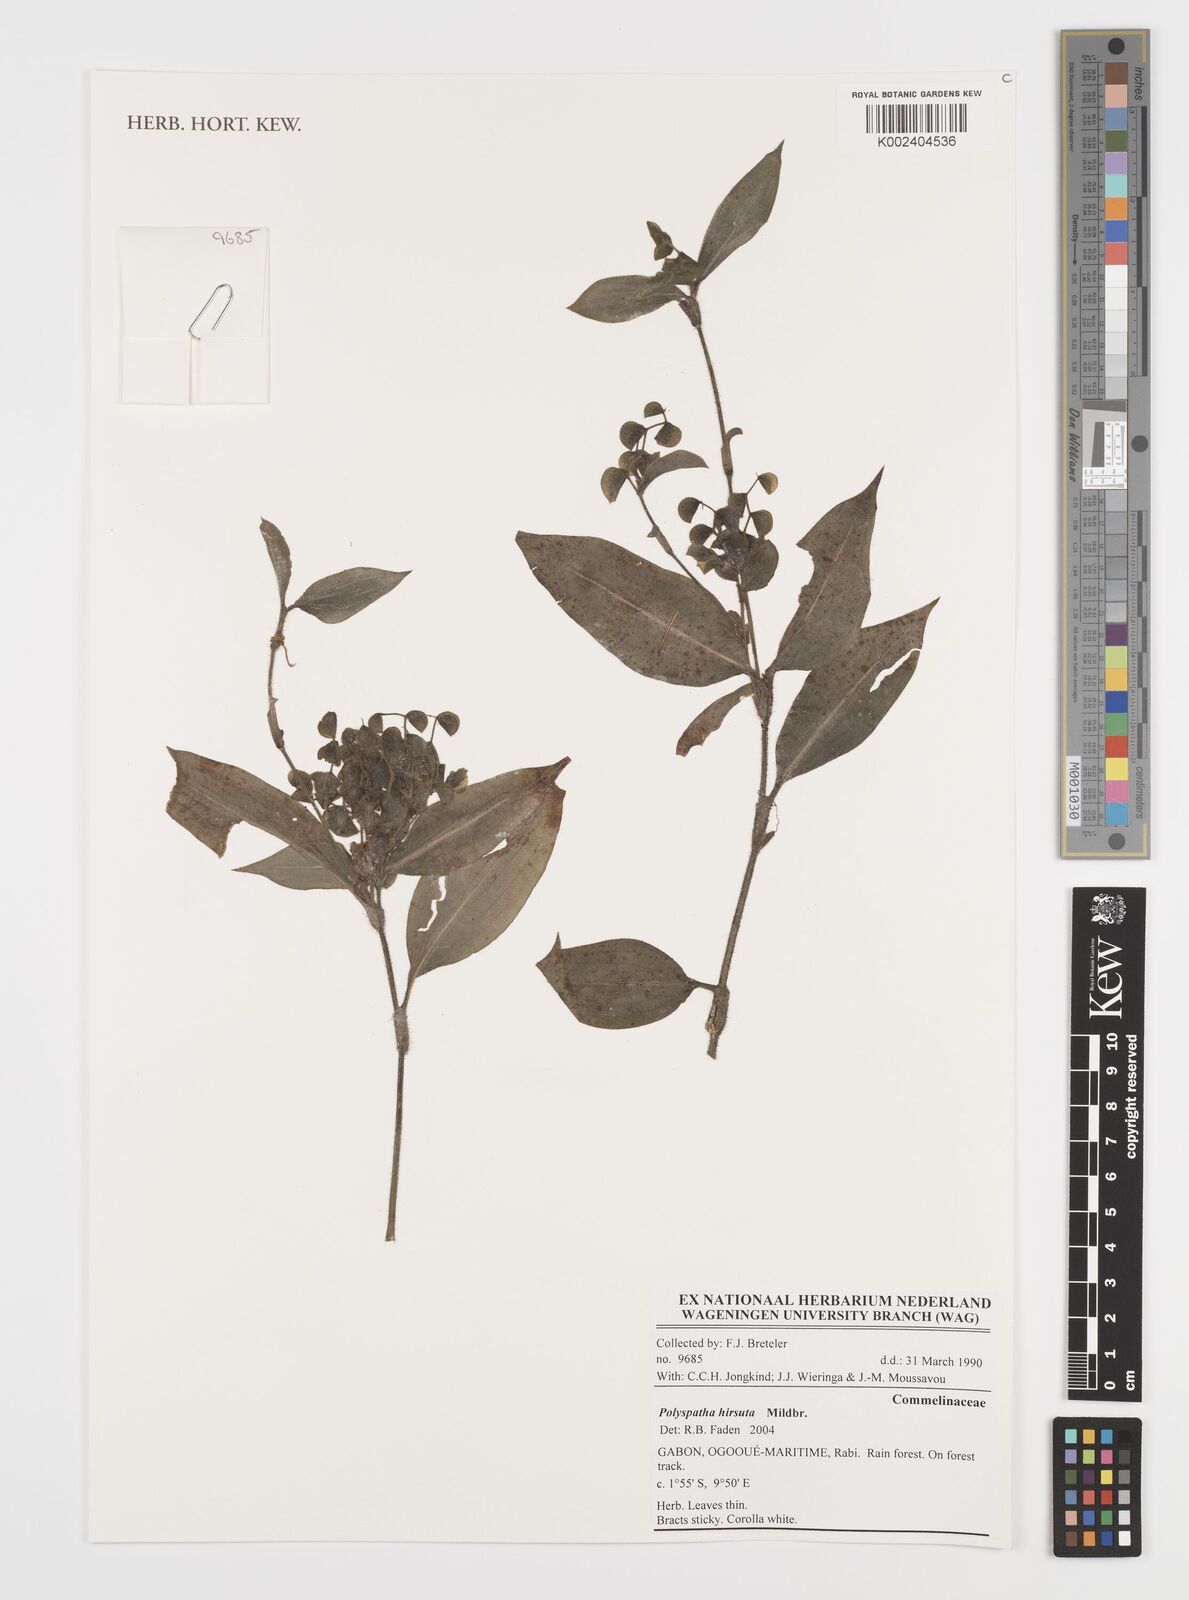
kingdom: Plantae
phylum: Tracheophyta
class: Liliopsida
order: Commelinales
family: Commelinaceae
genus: Polyspatha
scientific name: Polyspatha hirsuta
